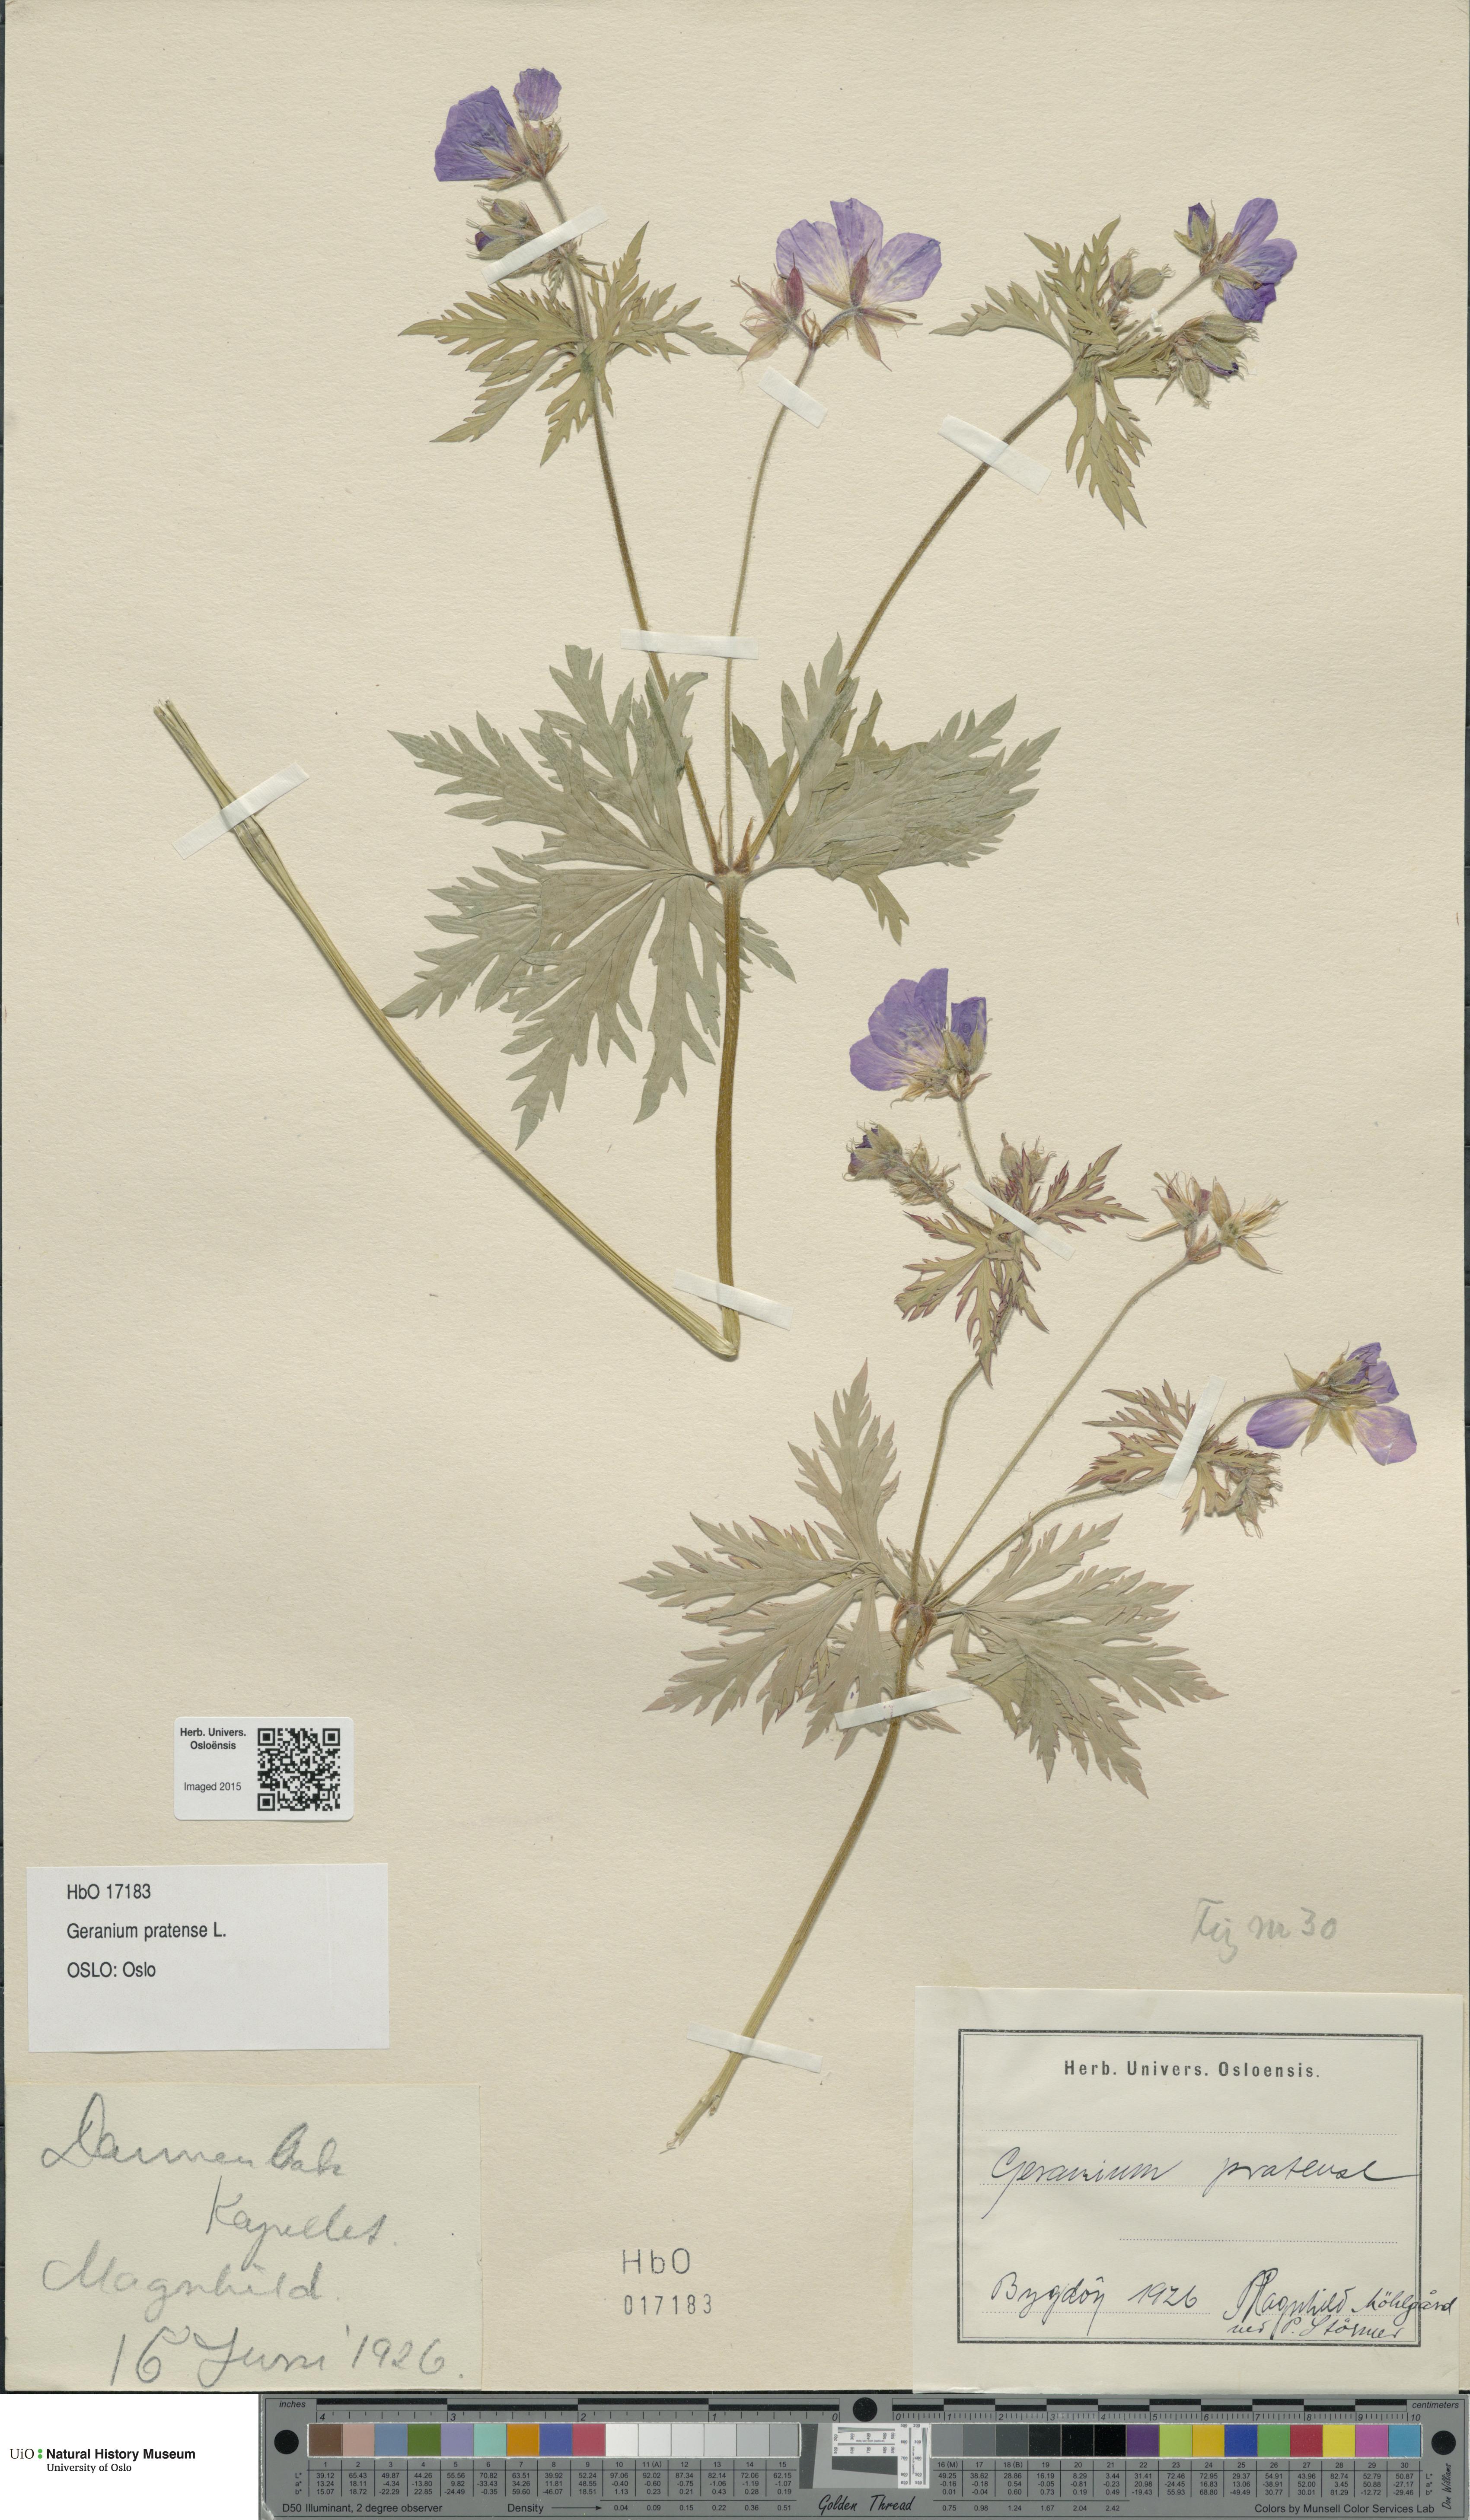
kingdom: Plantae
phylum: Tracheophyta
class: Magnoliopsida
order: Geraniales
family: Geraniaceae
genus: Geranium
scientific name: Geranium pratense
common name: Meadow crane's-bill
